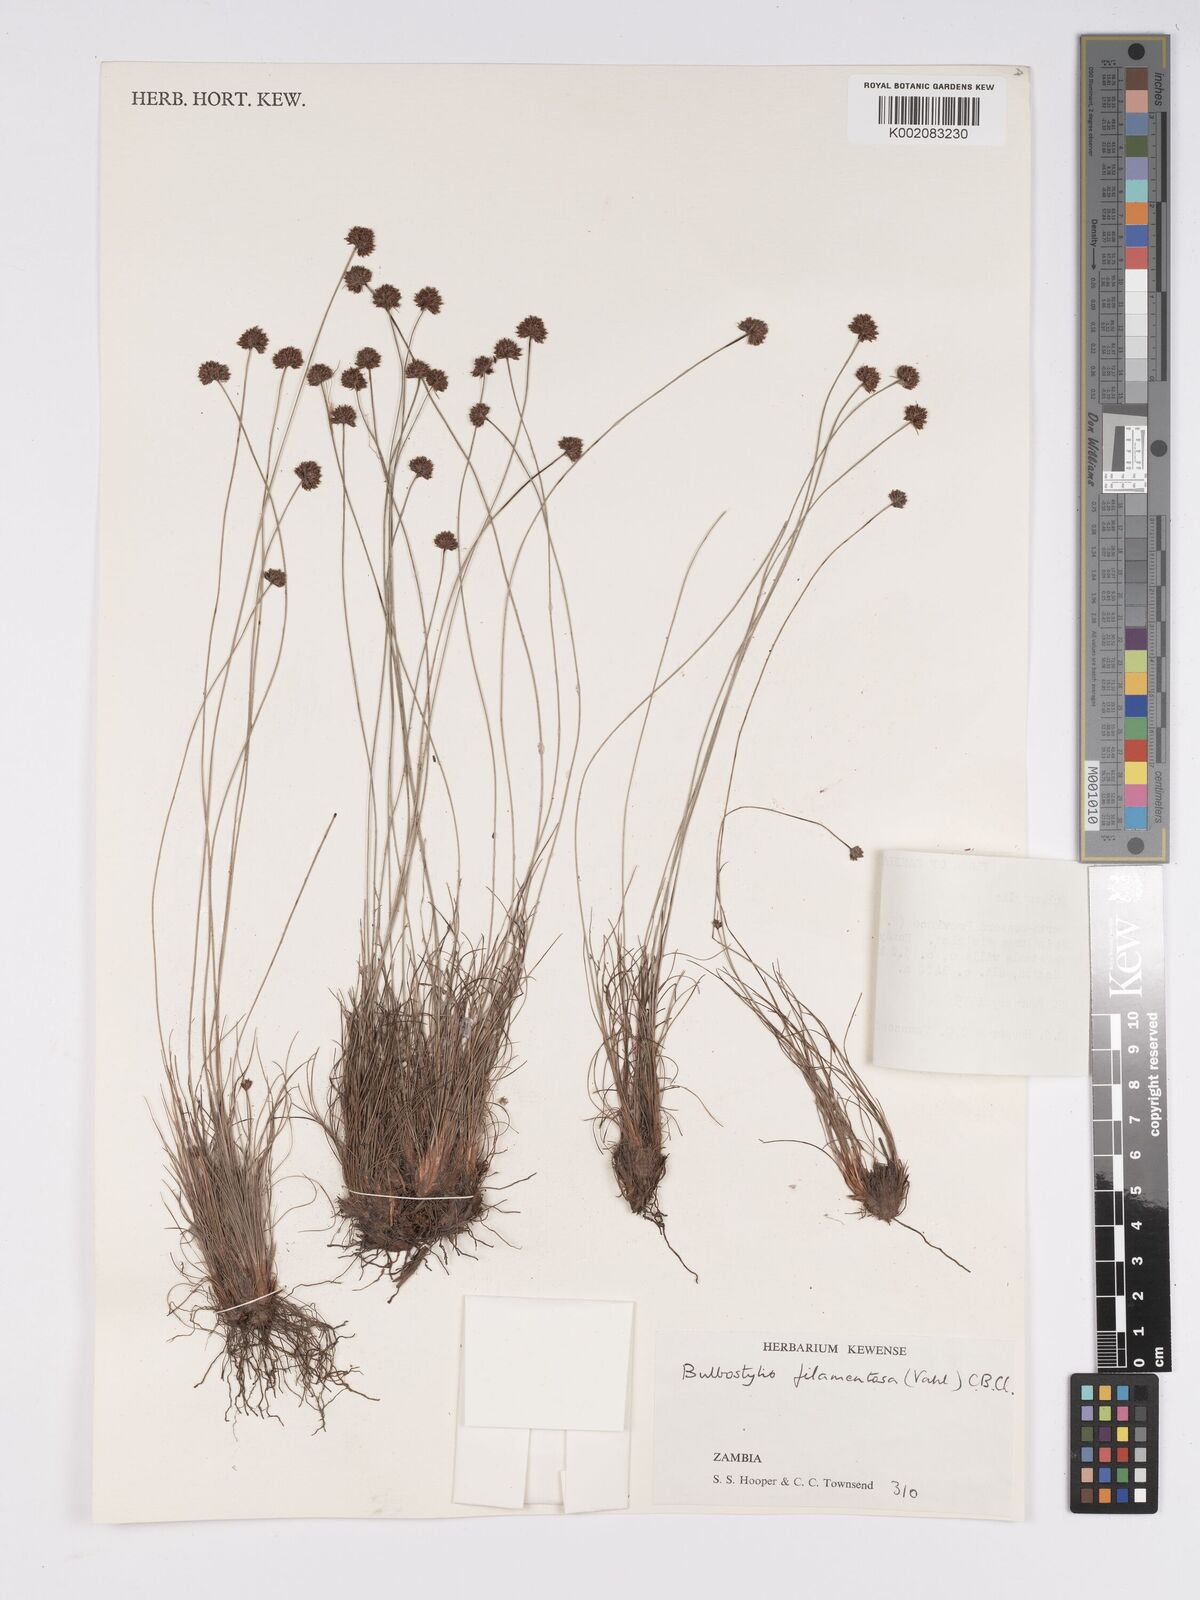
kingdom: Plantae
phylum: Tracheophyta
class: Liliopsida
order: Poales
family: Cyperaceae
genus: Bulbostylis
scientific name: Bulbostylis filamentosa
